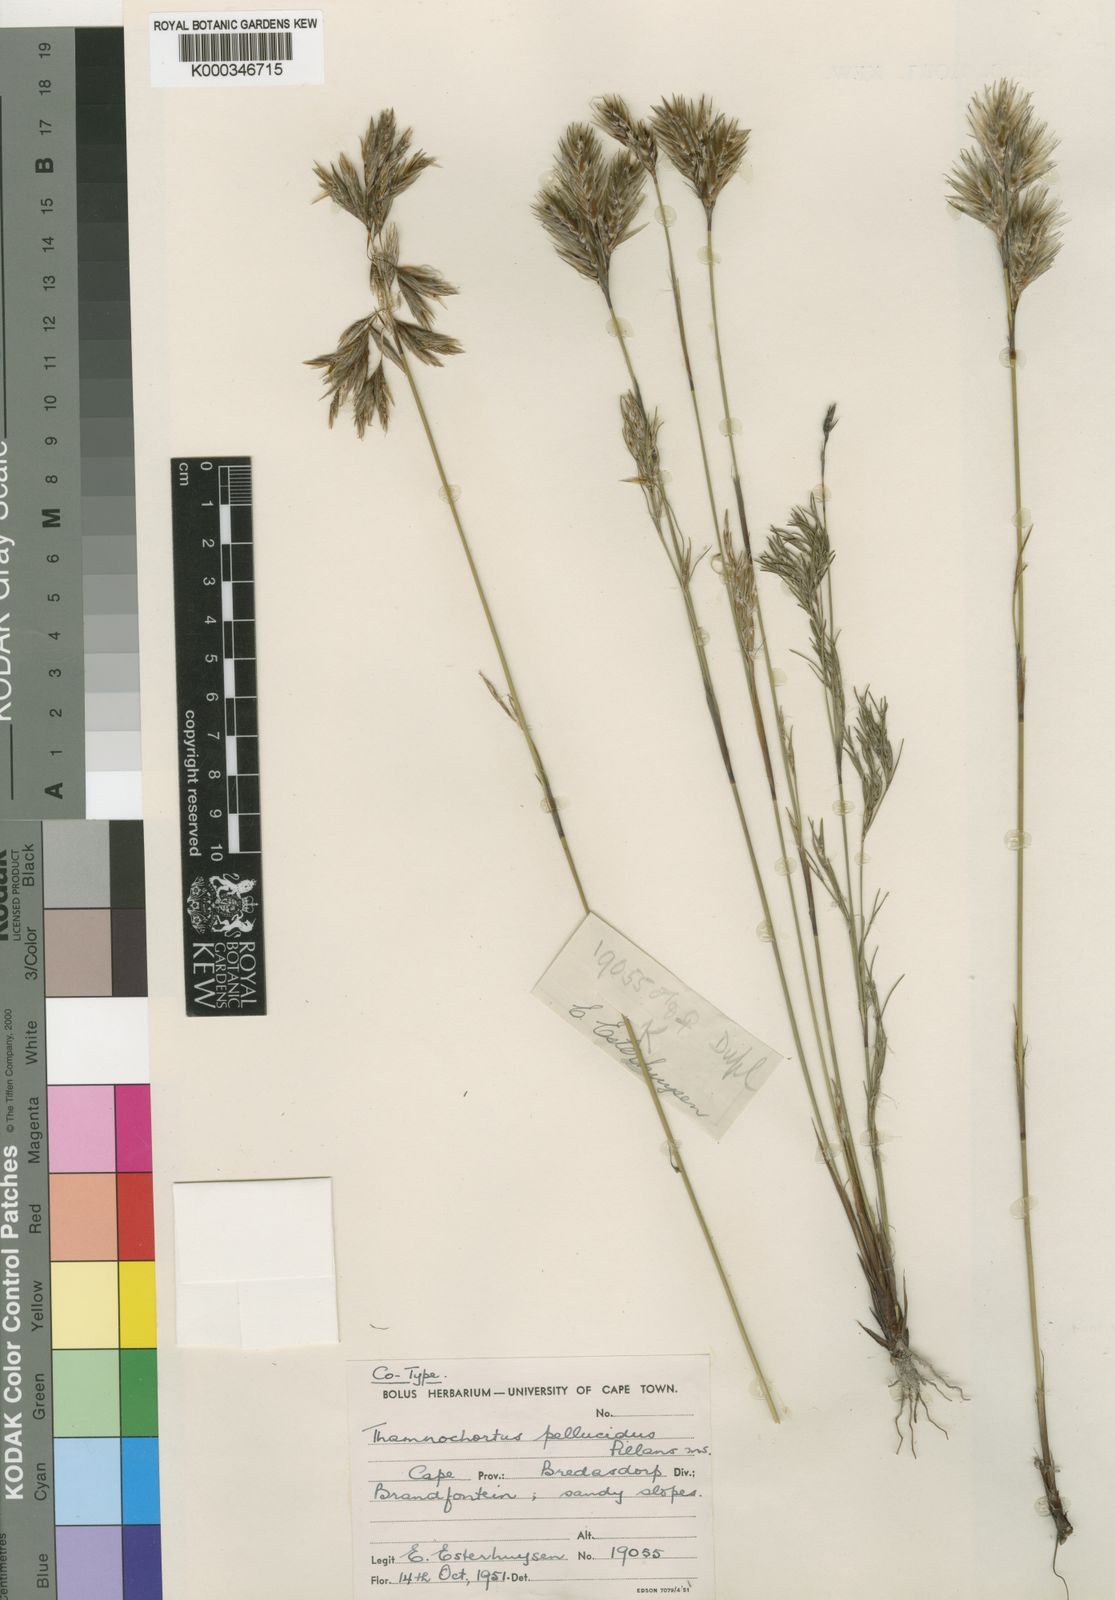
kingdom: Plantae
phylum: Tracheophyta
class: Liliopsida
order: Poales
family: Restionaceae
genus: Thamnochortus
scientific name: Thamnochortus pellucidus
